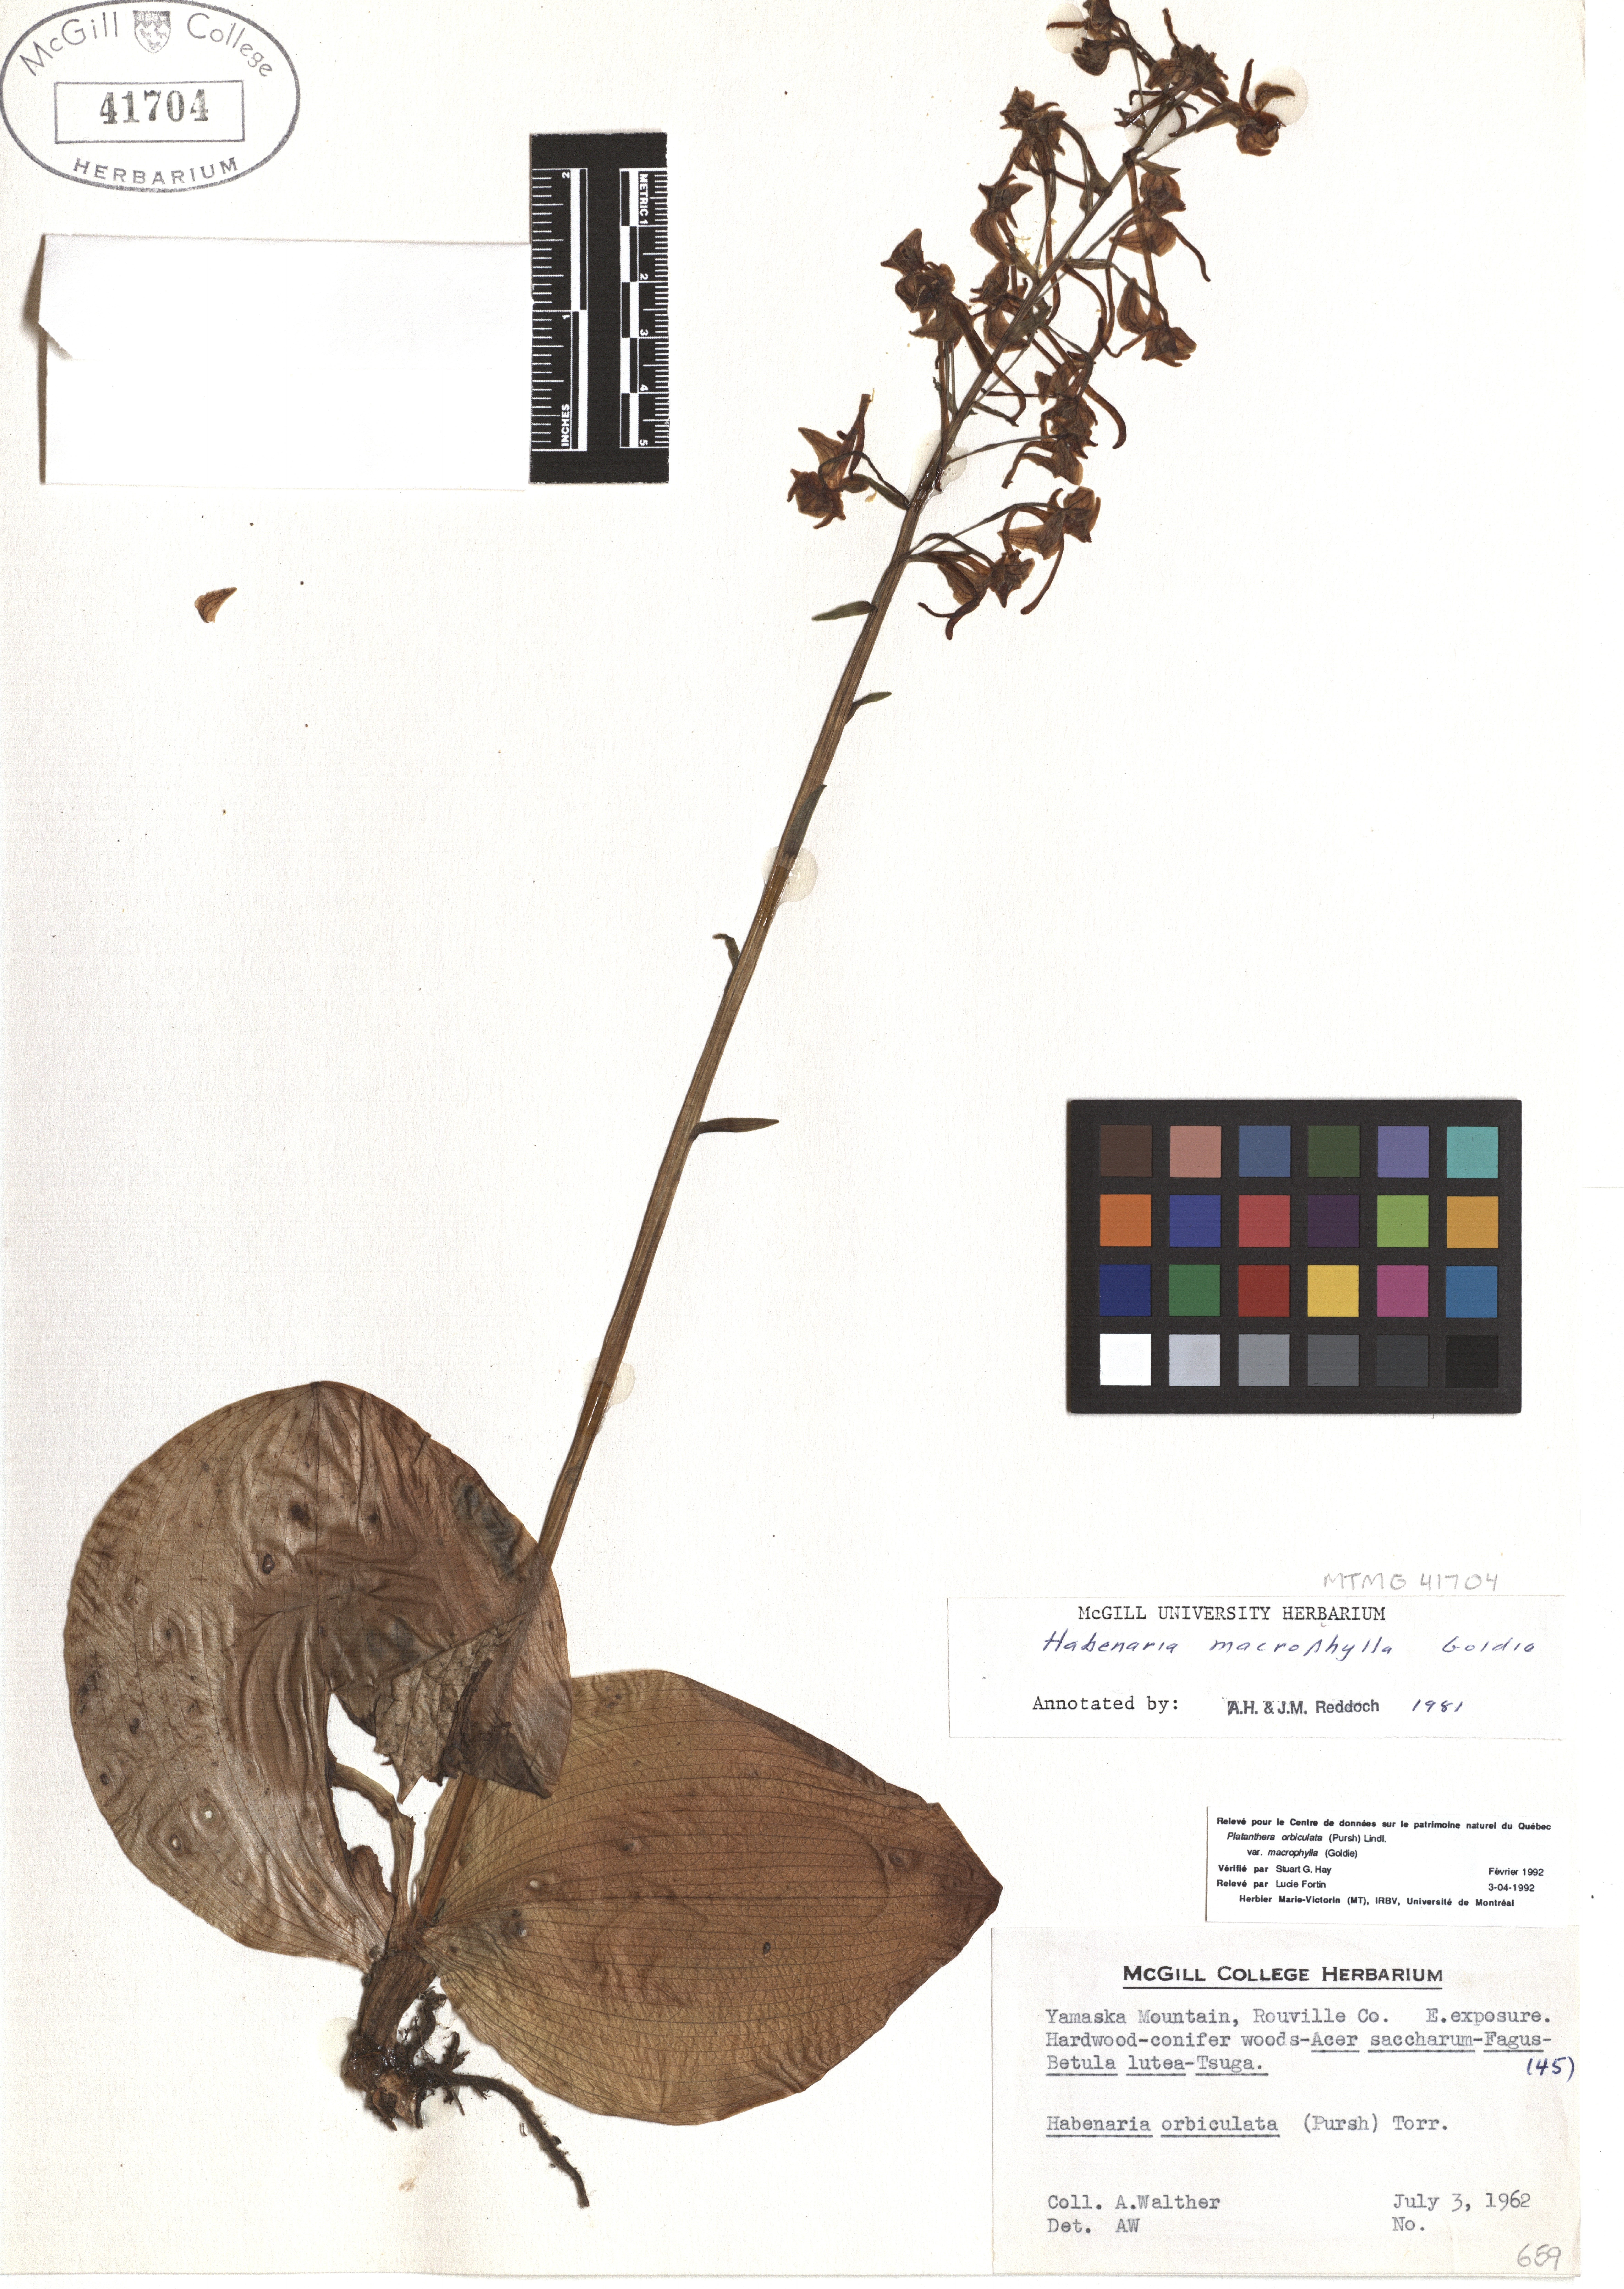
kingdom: Plantae
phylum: Tracheophyta
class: Liliopsida
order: Asparagales
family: Orchidaceae
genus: Platanthera
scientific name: Platanthera orbiculata
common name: Large round-leaved orchid
